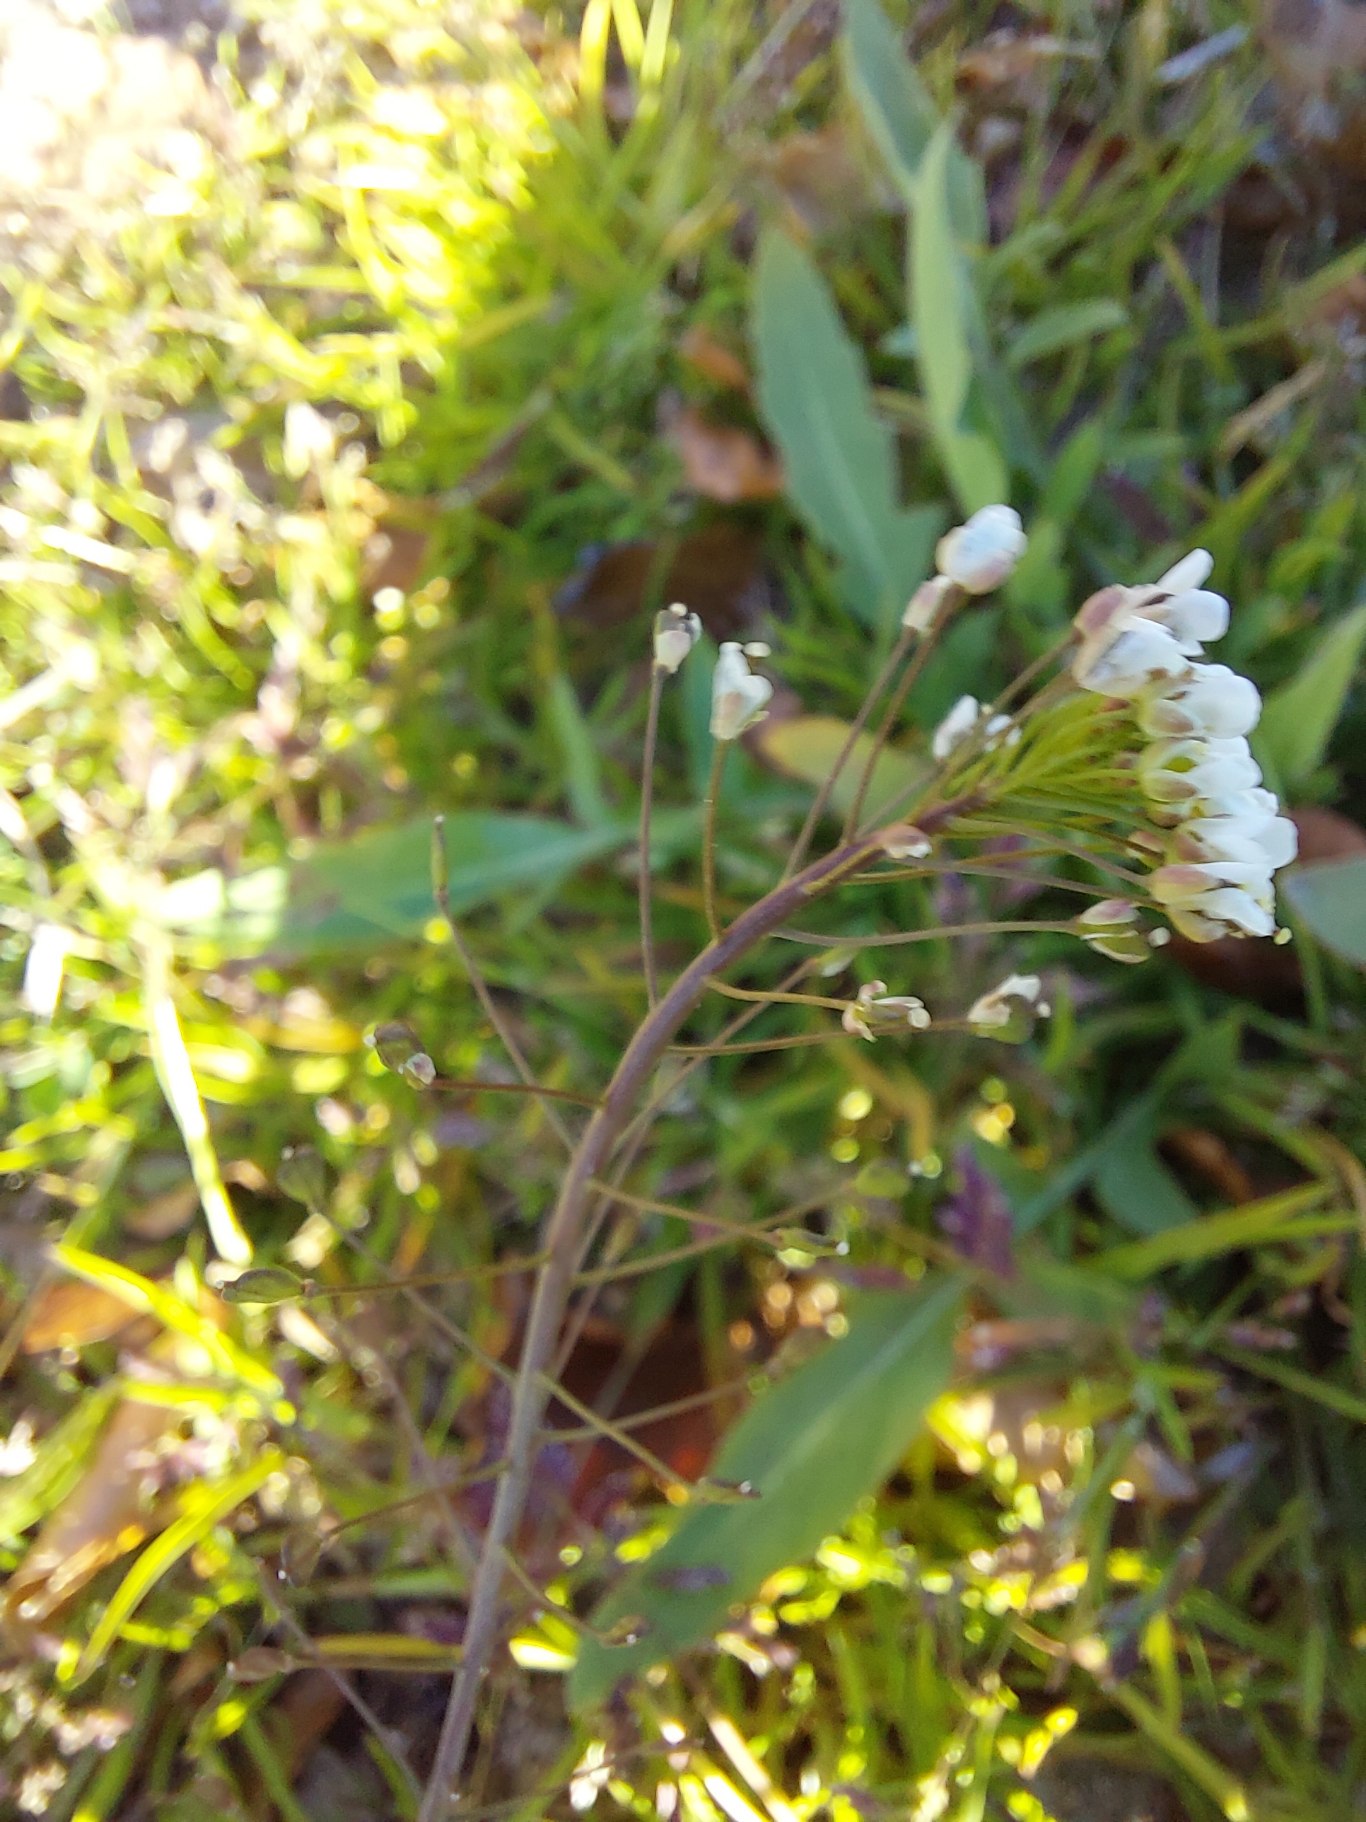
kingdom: Plantae
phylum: Tracheophyta
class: Magnoliopsida
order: Brassicales
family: Brassicaceae
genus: Capsella
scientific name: Capsella bursa-pastoris
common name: Hyrdetaske
